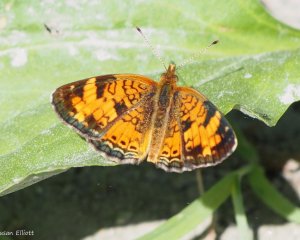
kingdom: Animalia
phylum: Arthropoda
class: Insecta
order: Lepidoptera
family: Nymphalidae
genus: Phyciodes
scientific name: Phyciodes
